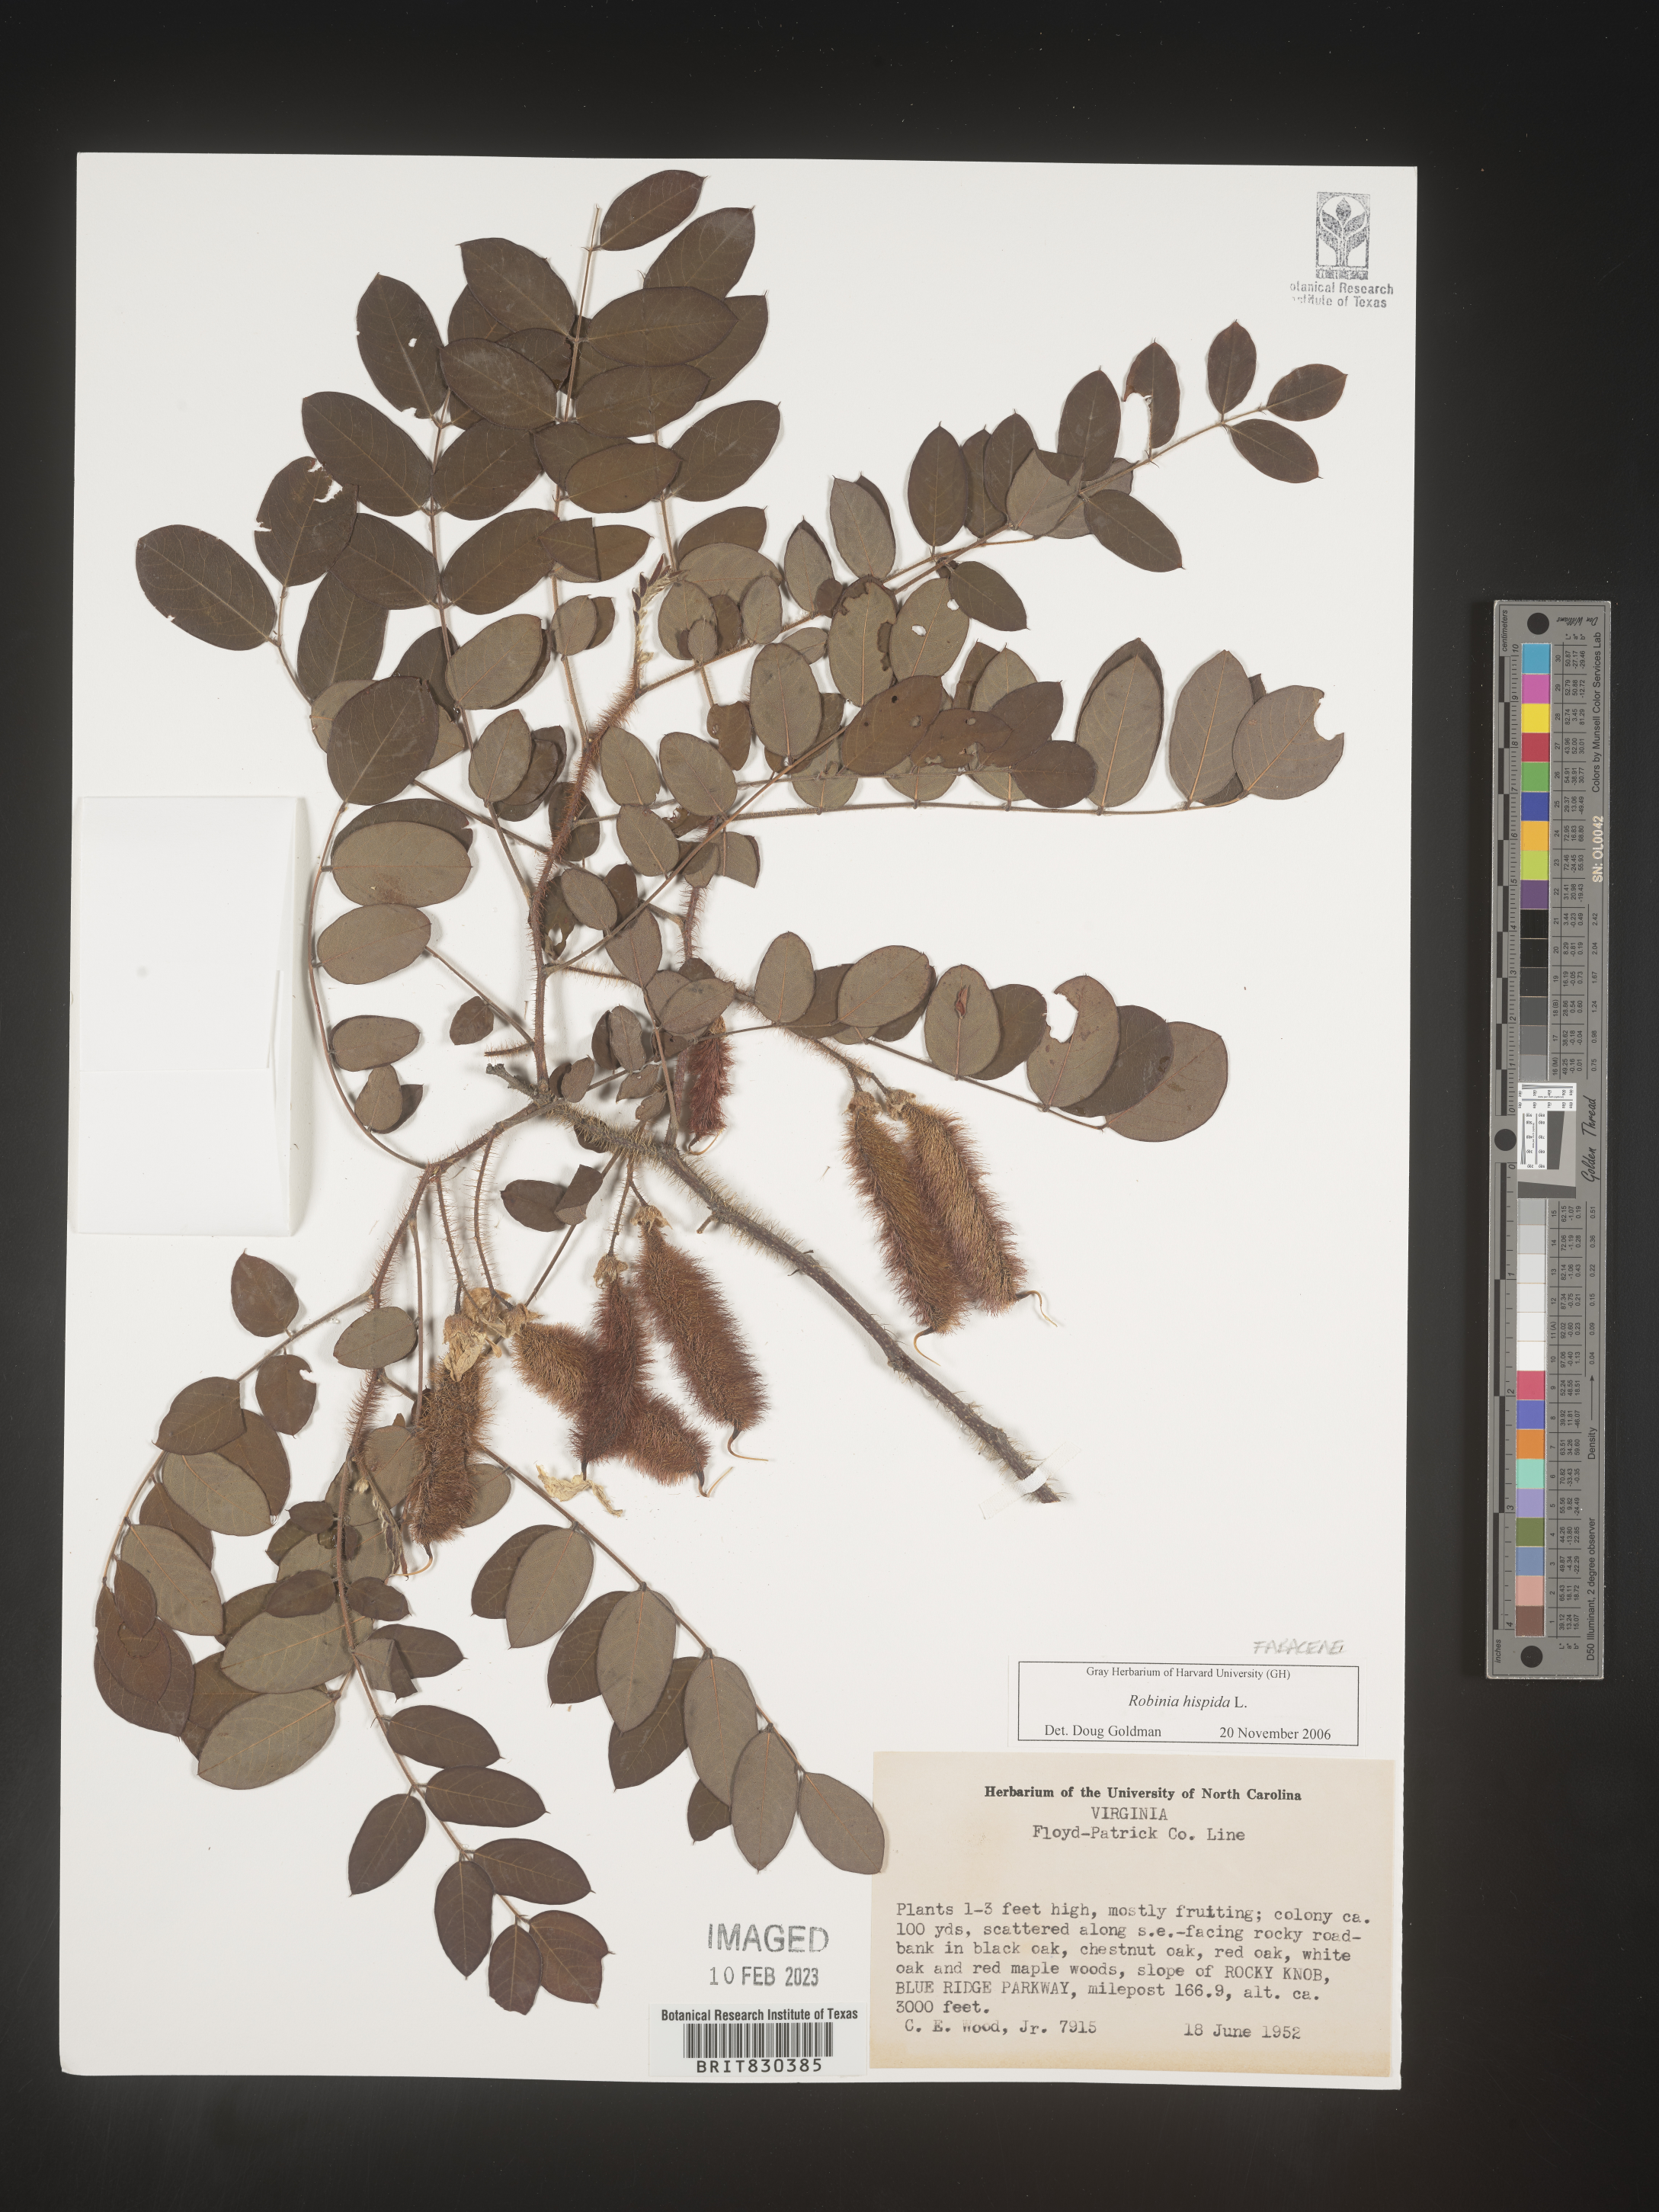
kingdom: Plantae
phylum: Tracheophyta
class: Magnoliopsida
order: Fabales
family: Fabaceae
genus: Robinia
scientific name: Robinia hispida
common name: Bristly locust
